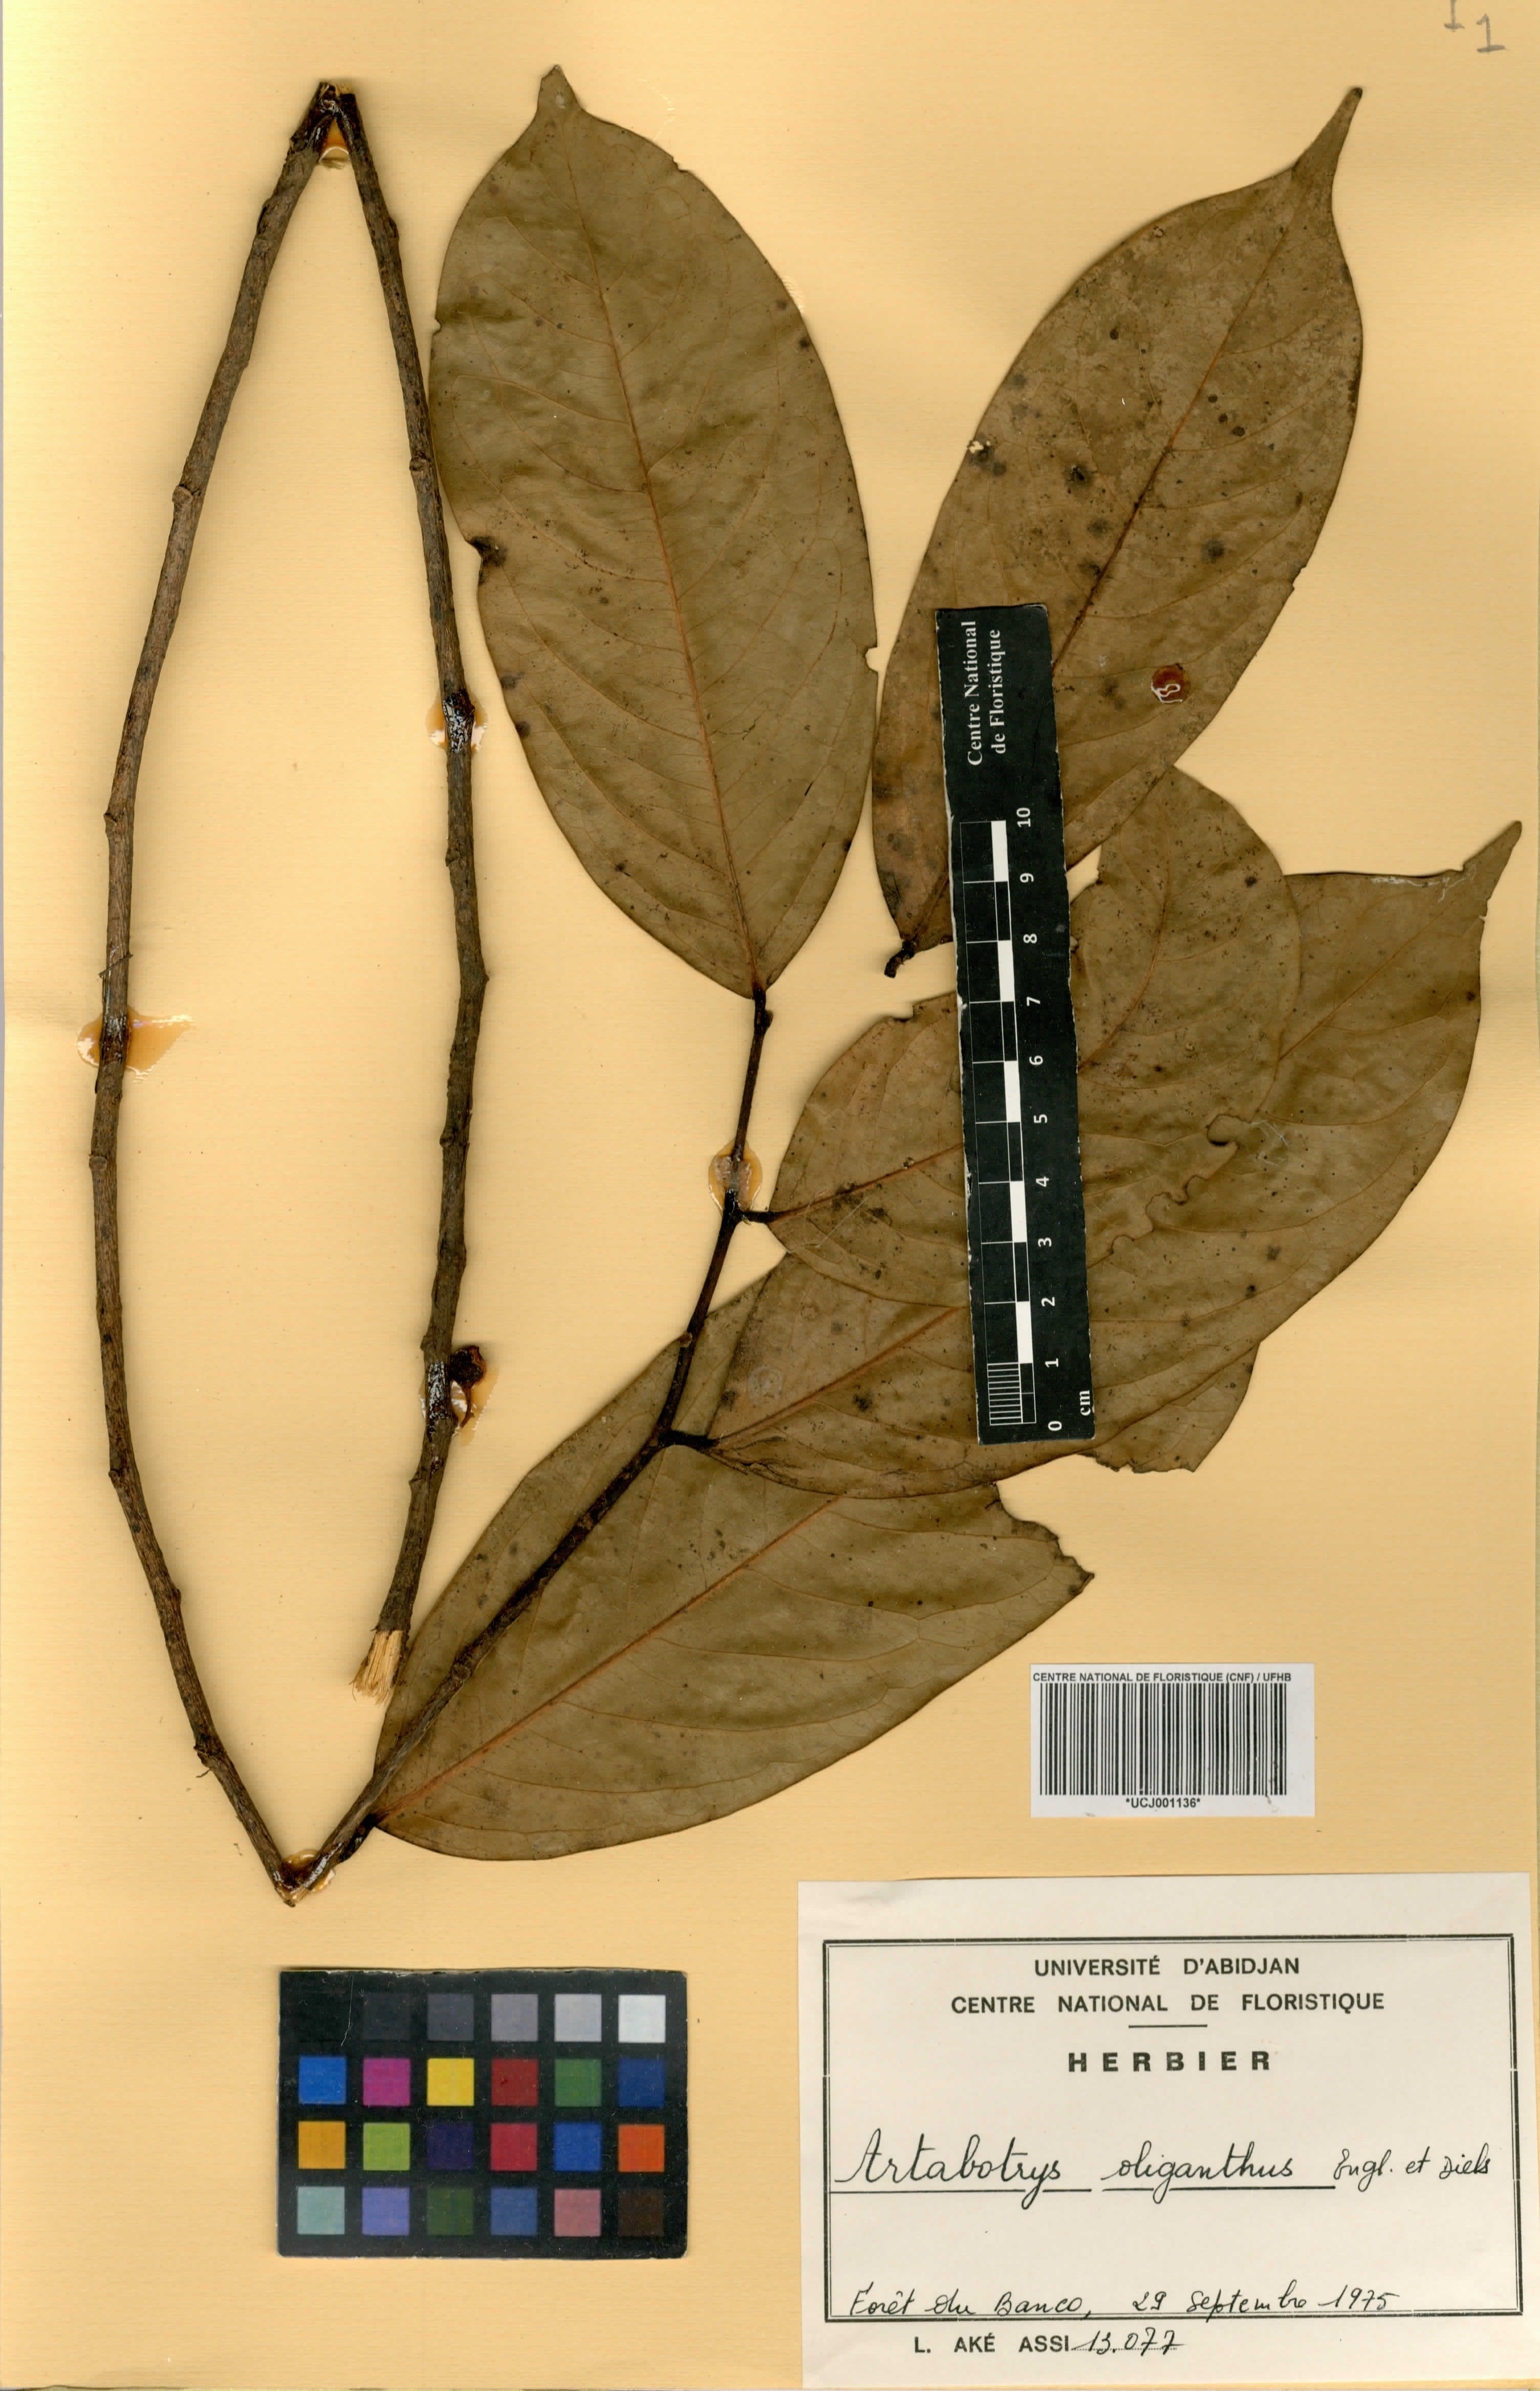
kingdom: Plantae
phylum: Tracheophyta
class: Magnoliopsida
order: Magnoliales
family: Annonaceae
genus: Artabotrys
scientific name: Artabotrys oliganthus
